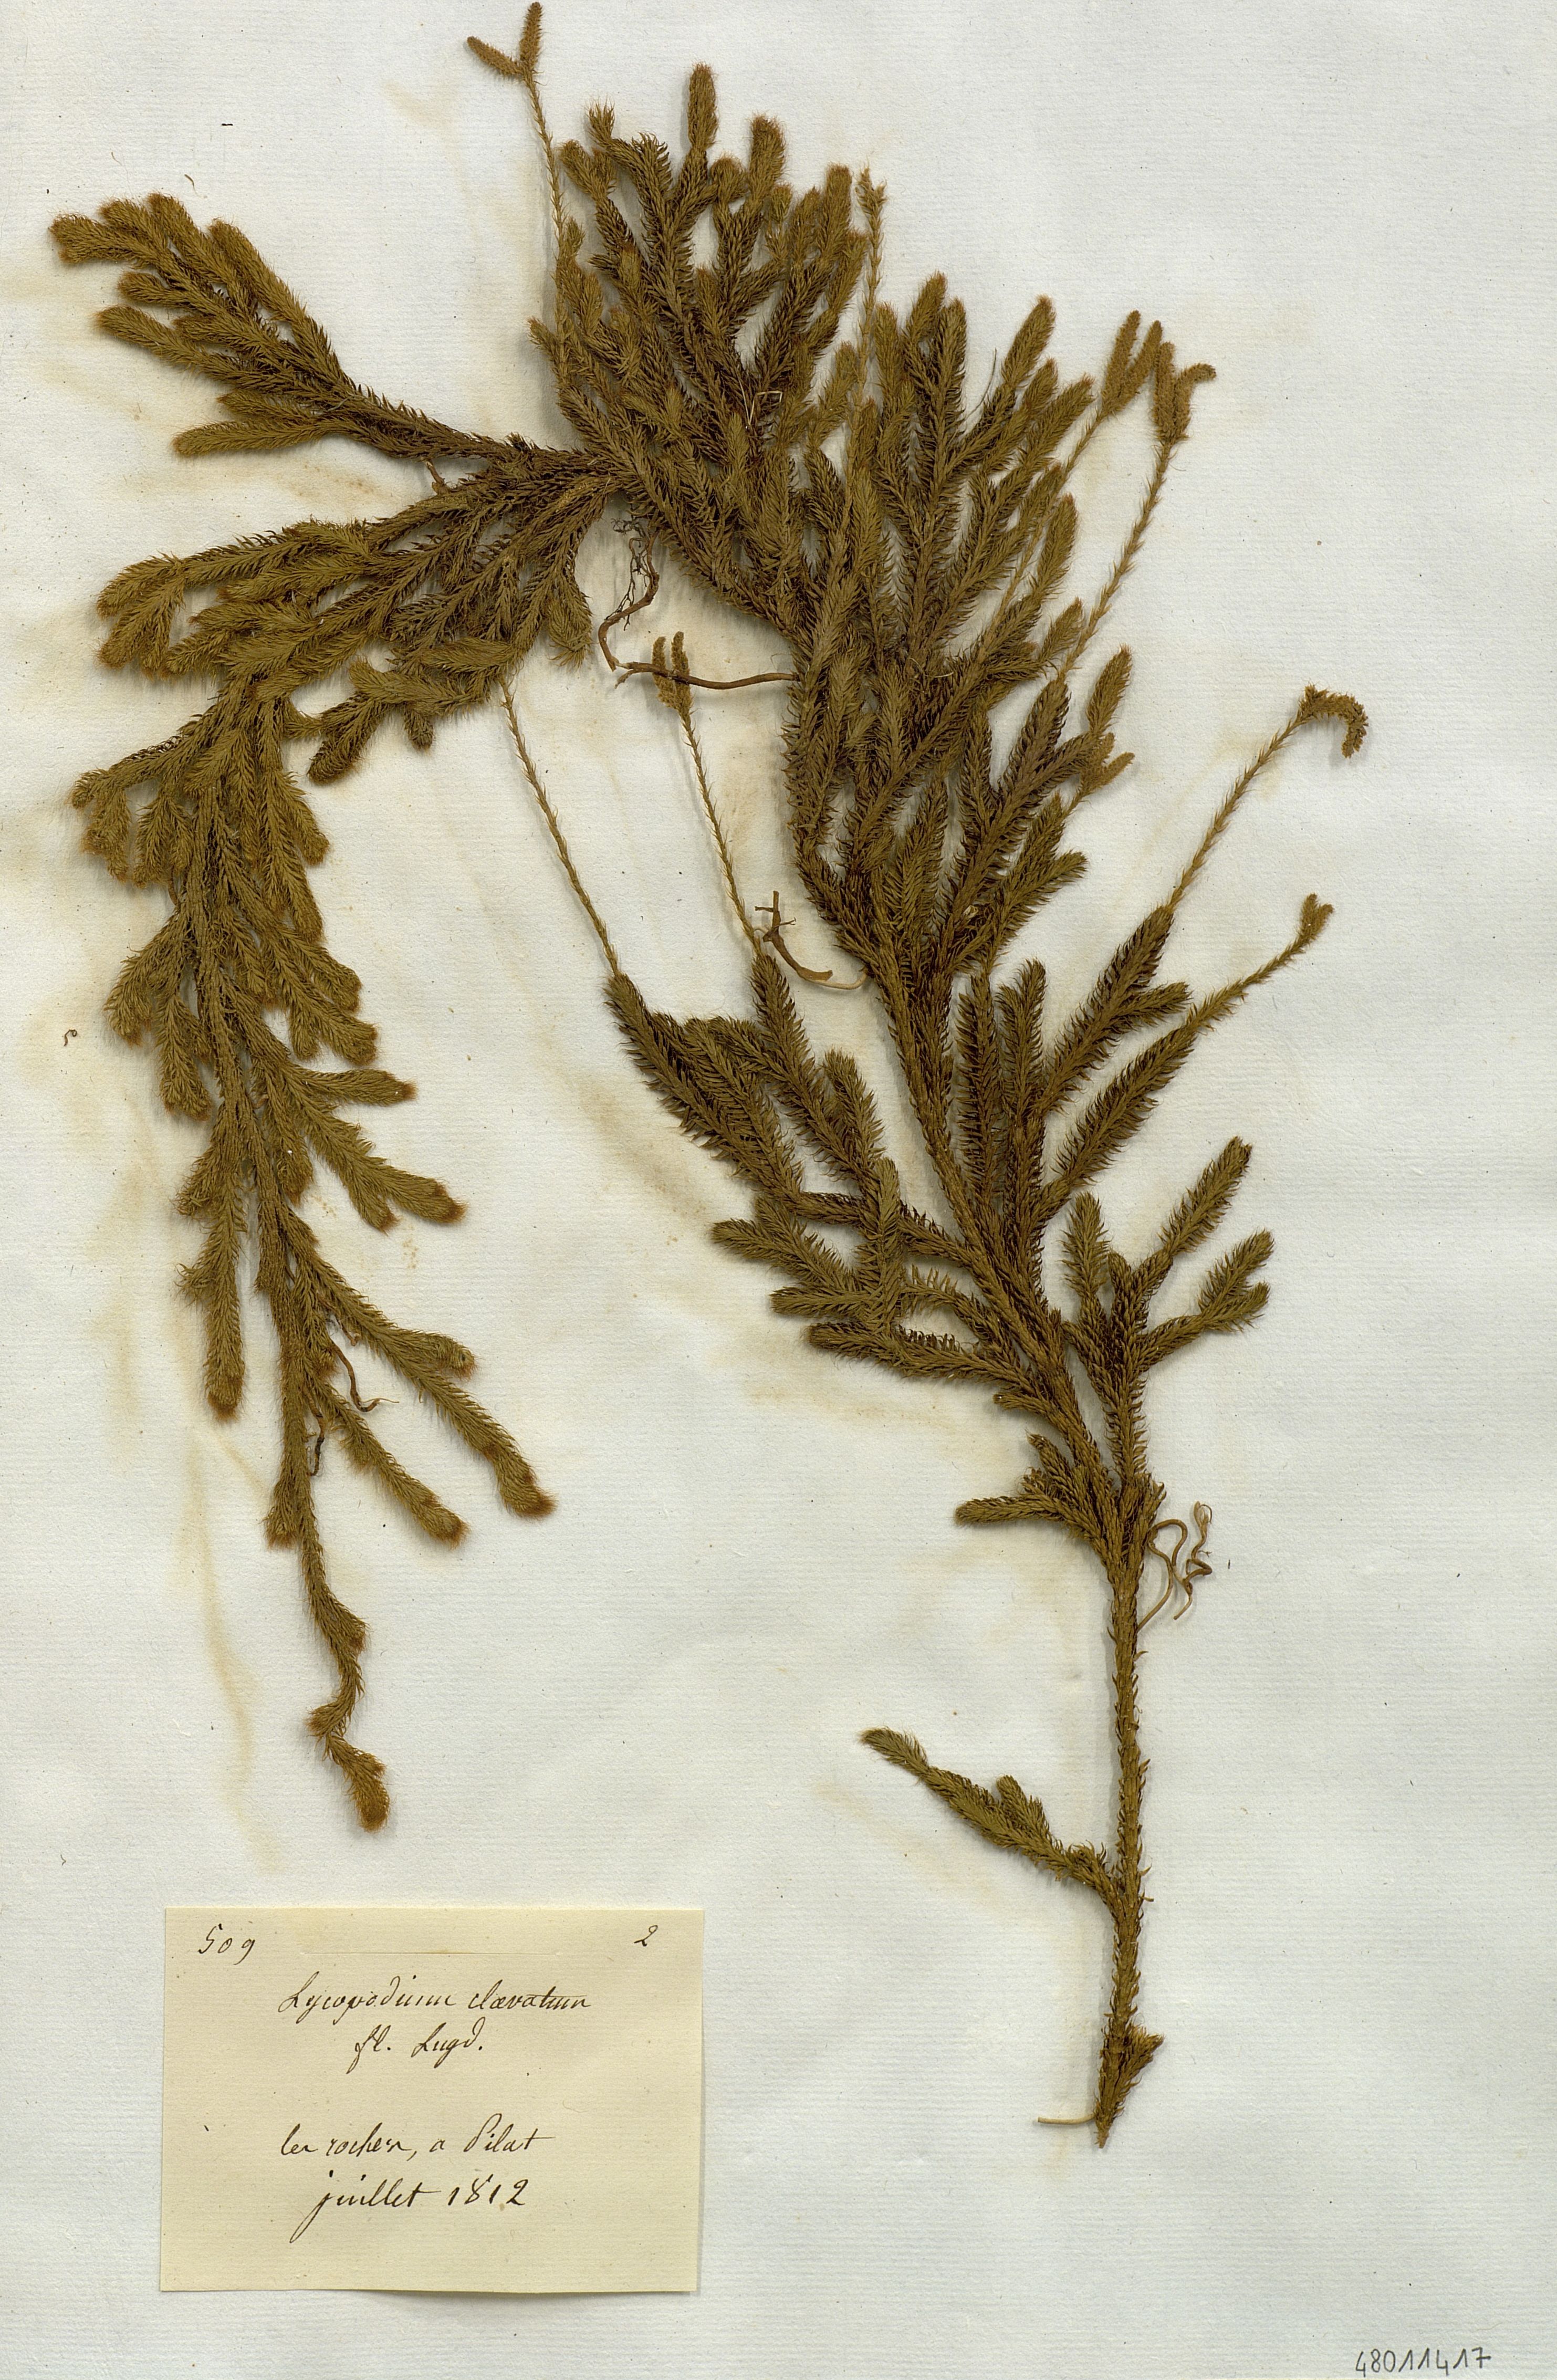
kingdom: Plantae
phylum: Tracheophyta
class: Lycopodiopsida
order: Lycopodiales
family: Lycopodiaceae
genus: Lycopodium
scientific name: Lycopodium clavatum
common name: Stag's-horn clubmoss
